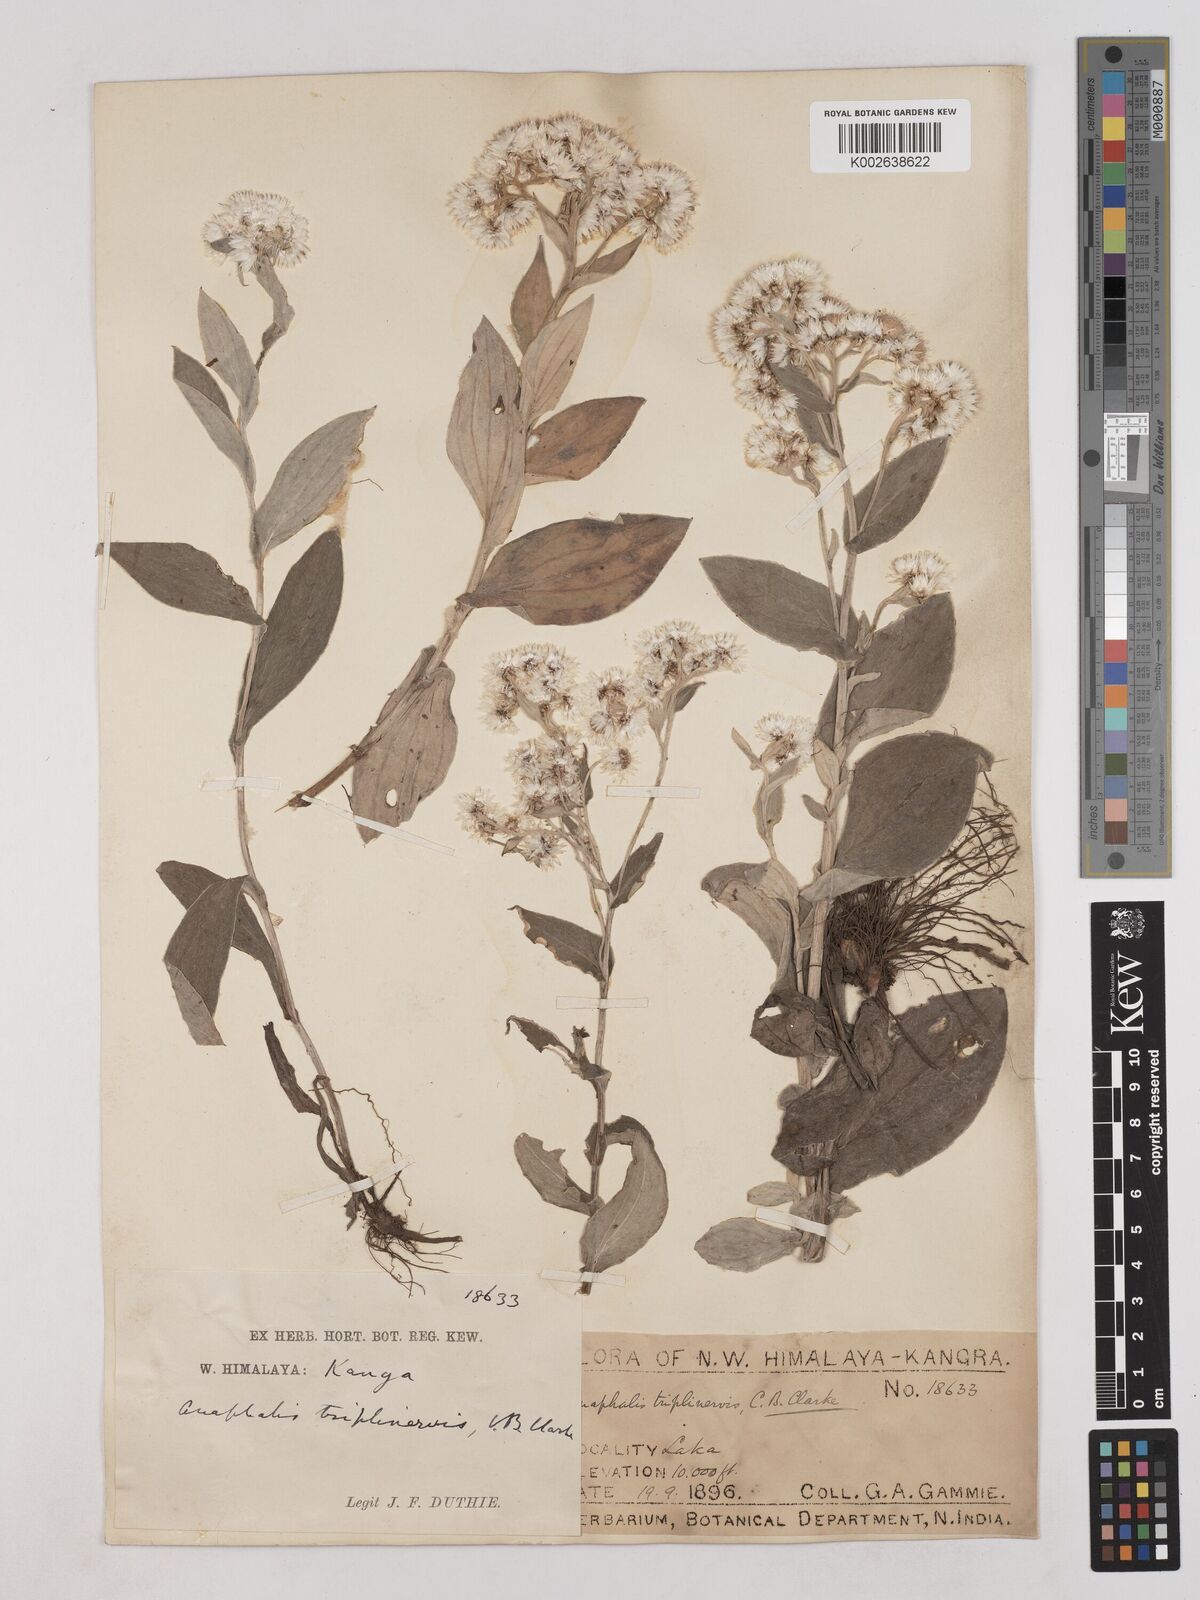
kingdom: Plantae
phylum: Tracheophyta
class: Magnoliopsida
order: Asterales
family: Asteraceae
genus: Anaphalis
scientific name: Anaphalis triplinervis
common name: Pearly everlasting
